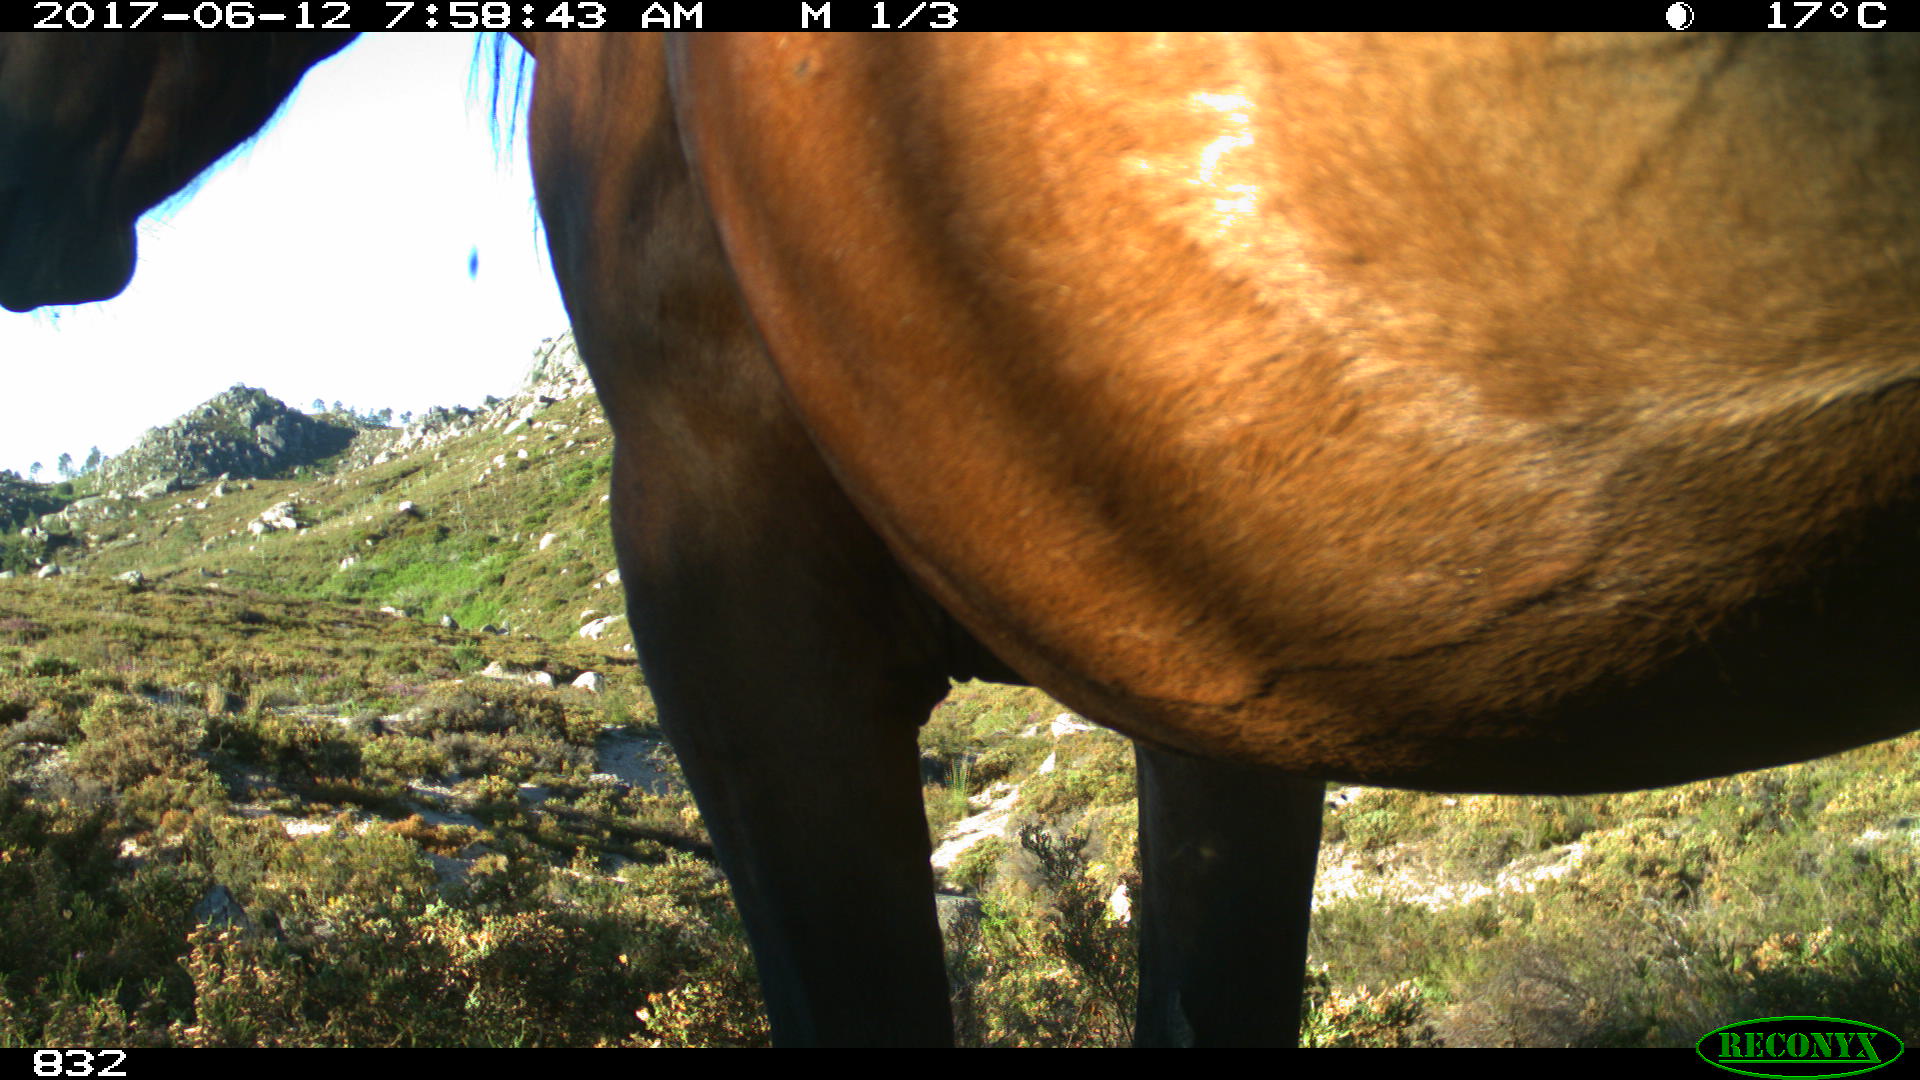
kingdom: Animalia
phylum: Chordata
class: Mammalia
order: Perissodactyla
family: Equidae
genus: Equus
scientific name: Equus caballus
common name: Horse
